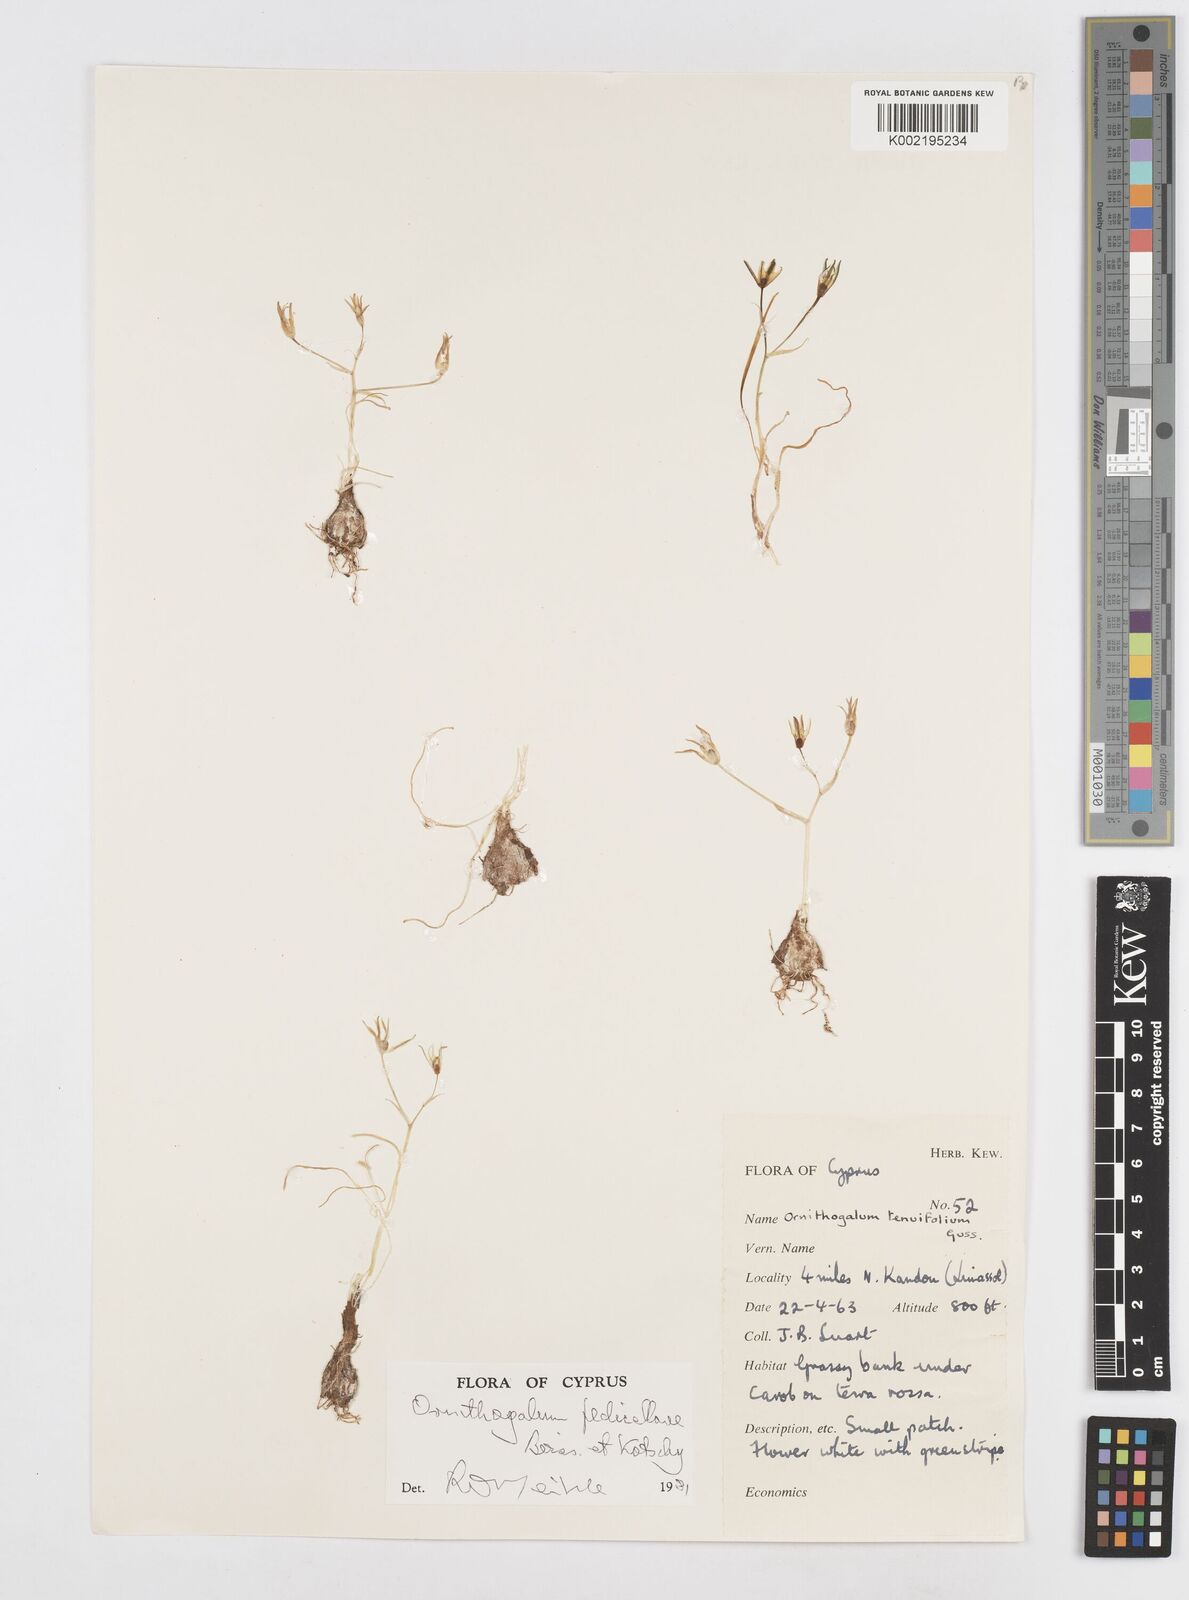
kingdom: Plantae
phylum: Tracheophyta
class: Liliopsida
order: Asparagales
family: Asparagaceae
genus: Ornithogalum
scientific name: Ornithogalum
